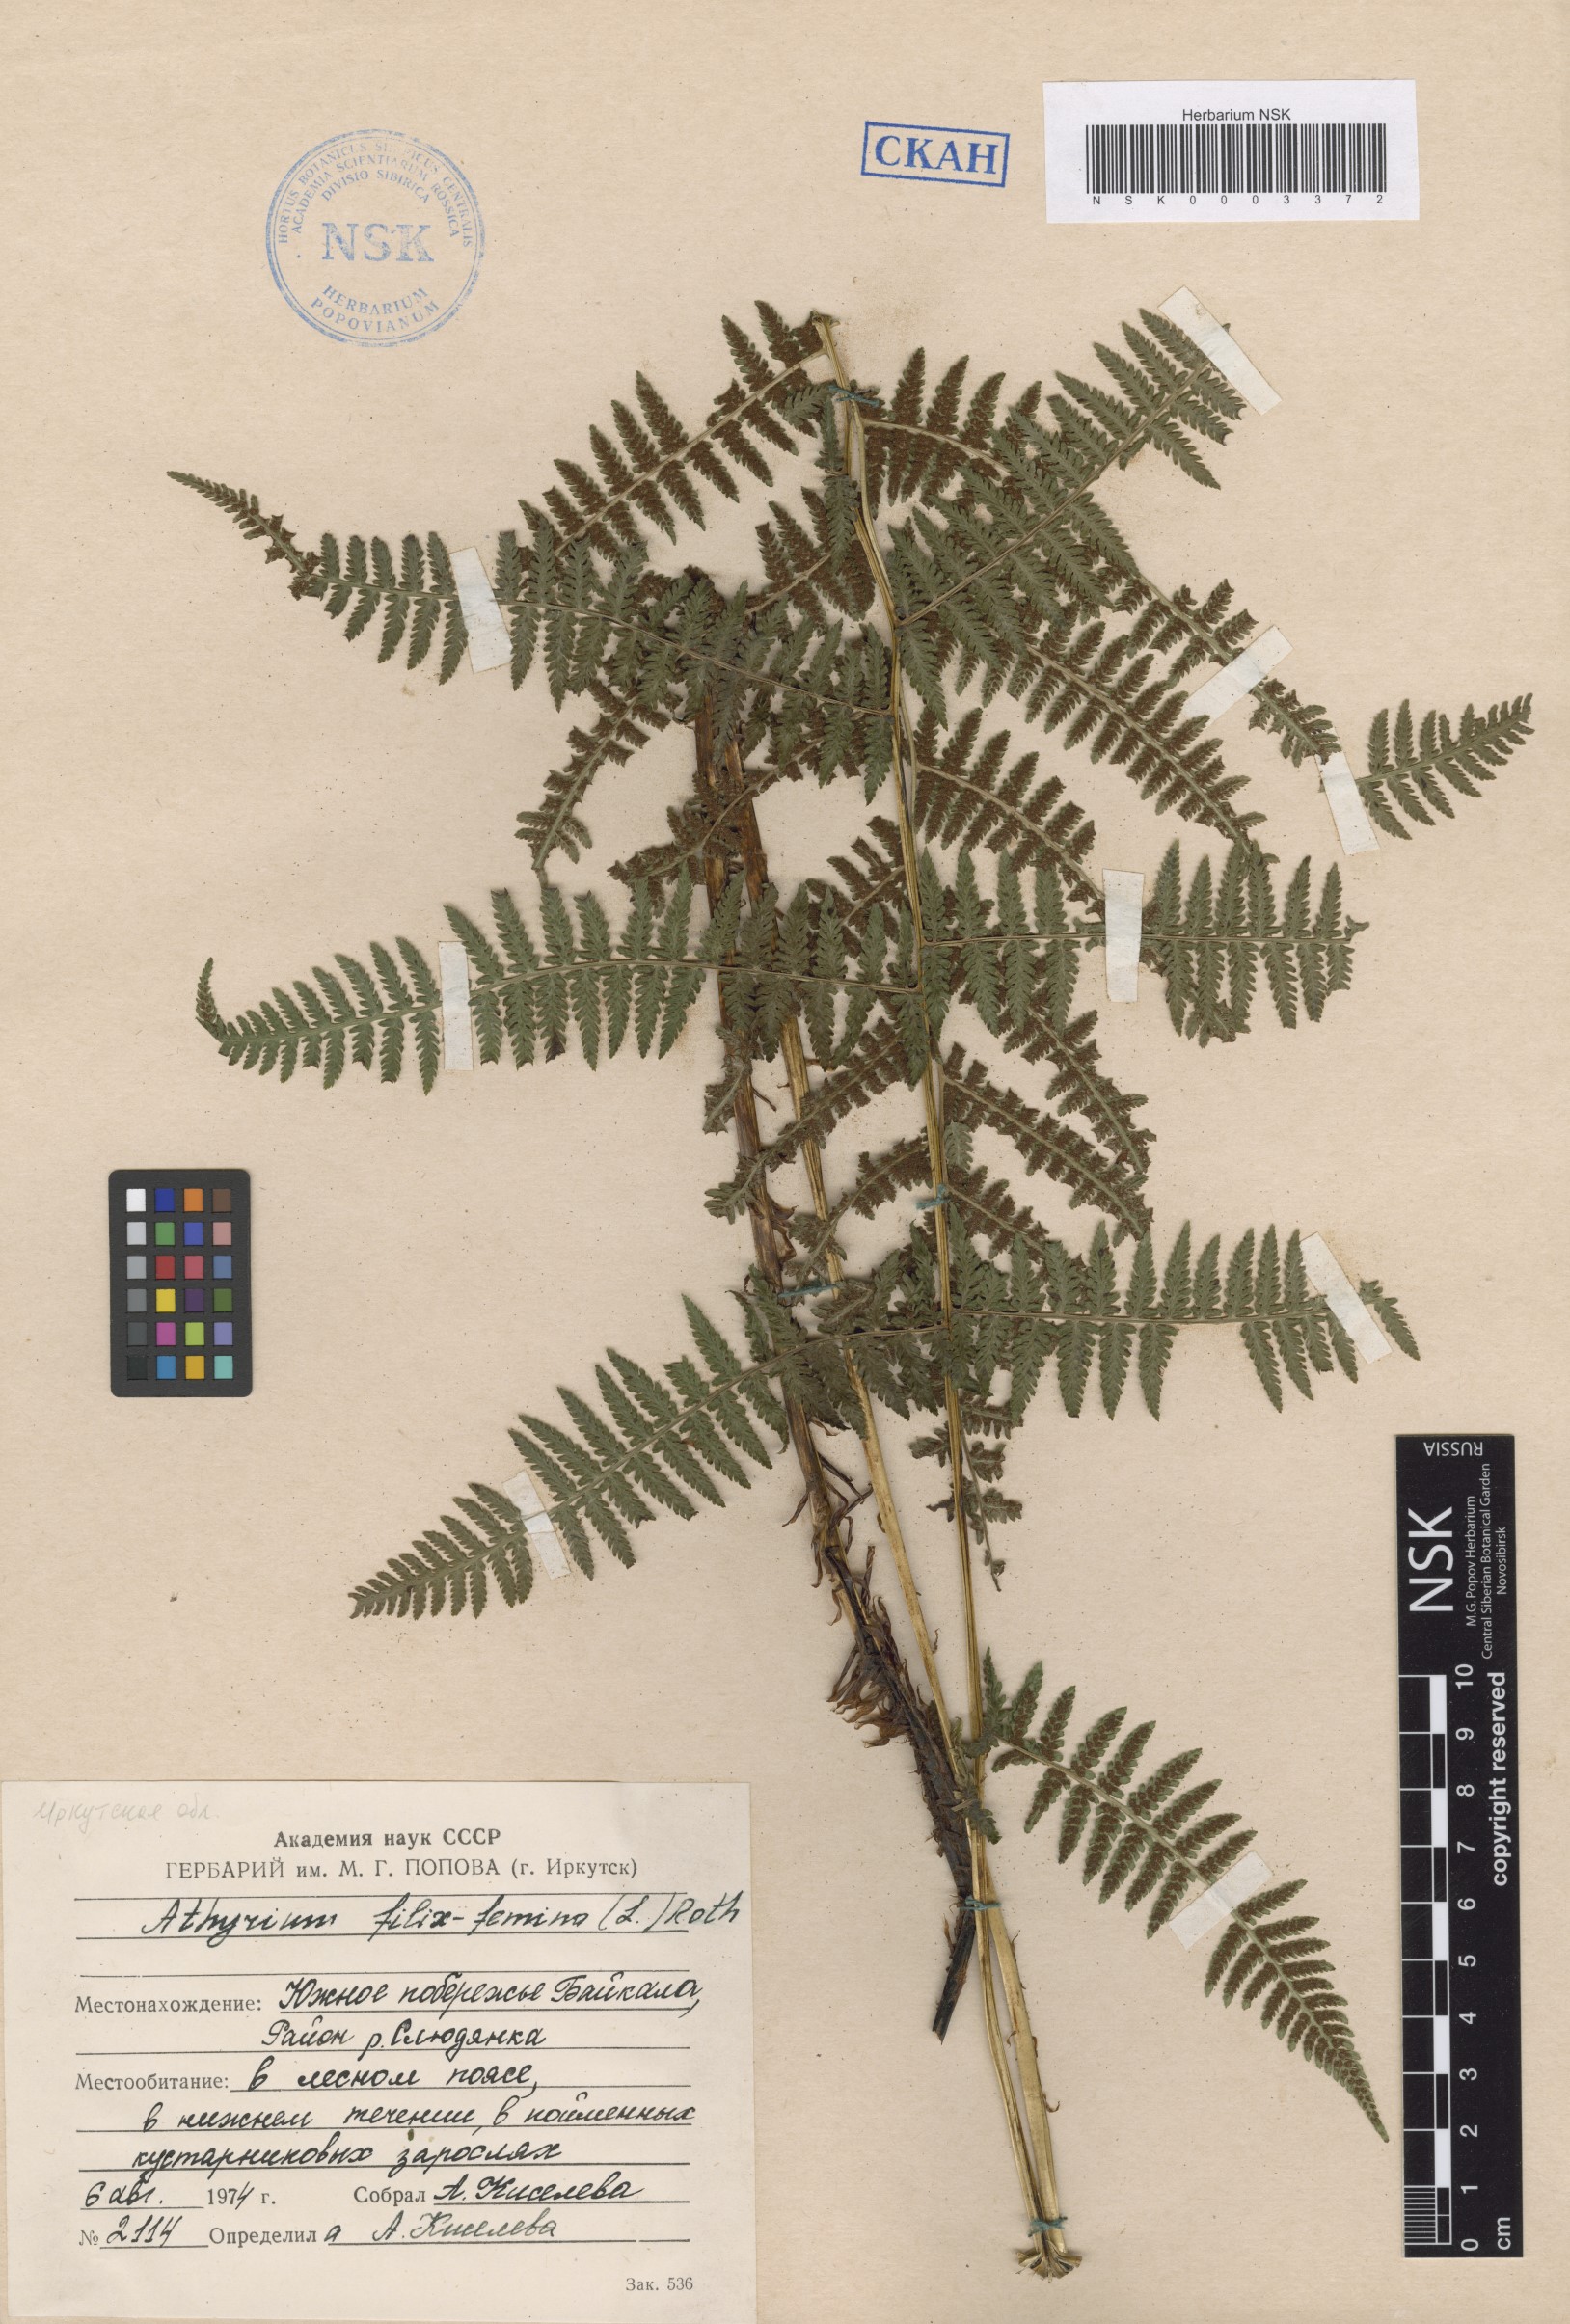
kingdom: Plantae
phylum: Tracheophyta
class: Polypodiopsida
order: Polypodiales
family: Athyriaceae
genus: Athyrium
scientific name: Athyrium filix-femina
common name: Lady fern
